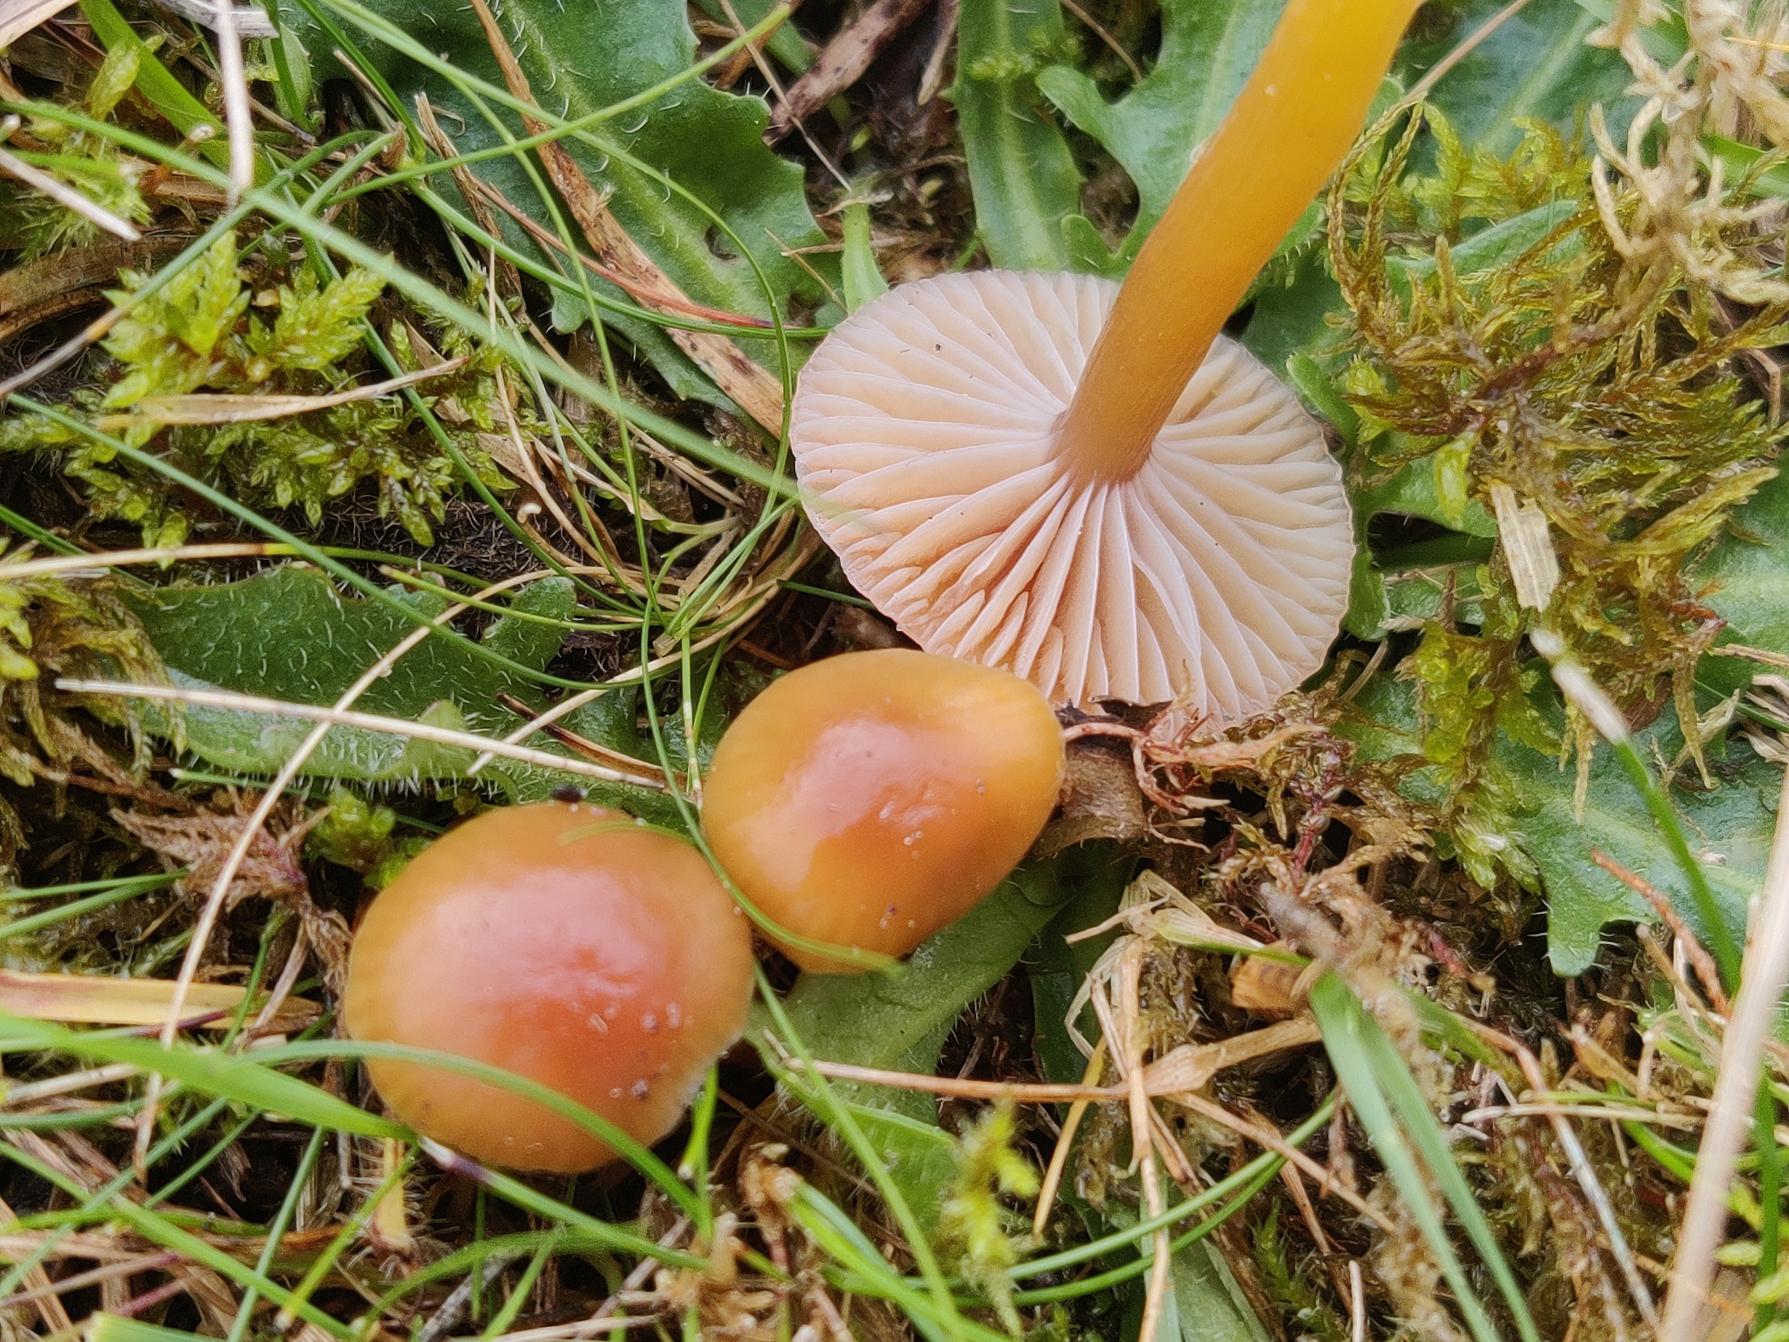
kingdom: Fungi
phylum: Basidiomycota
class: Agaricomycetes
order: Agaricales
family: Hygrophoraceae
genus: Gliophorus
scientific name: Gliophorus laetus
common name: Brusk-vokshat
